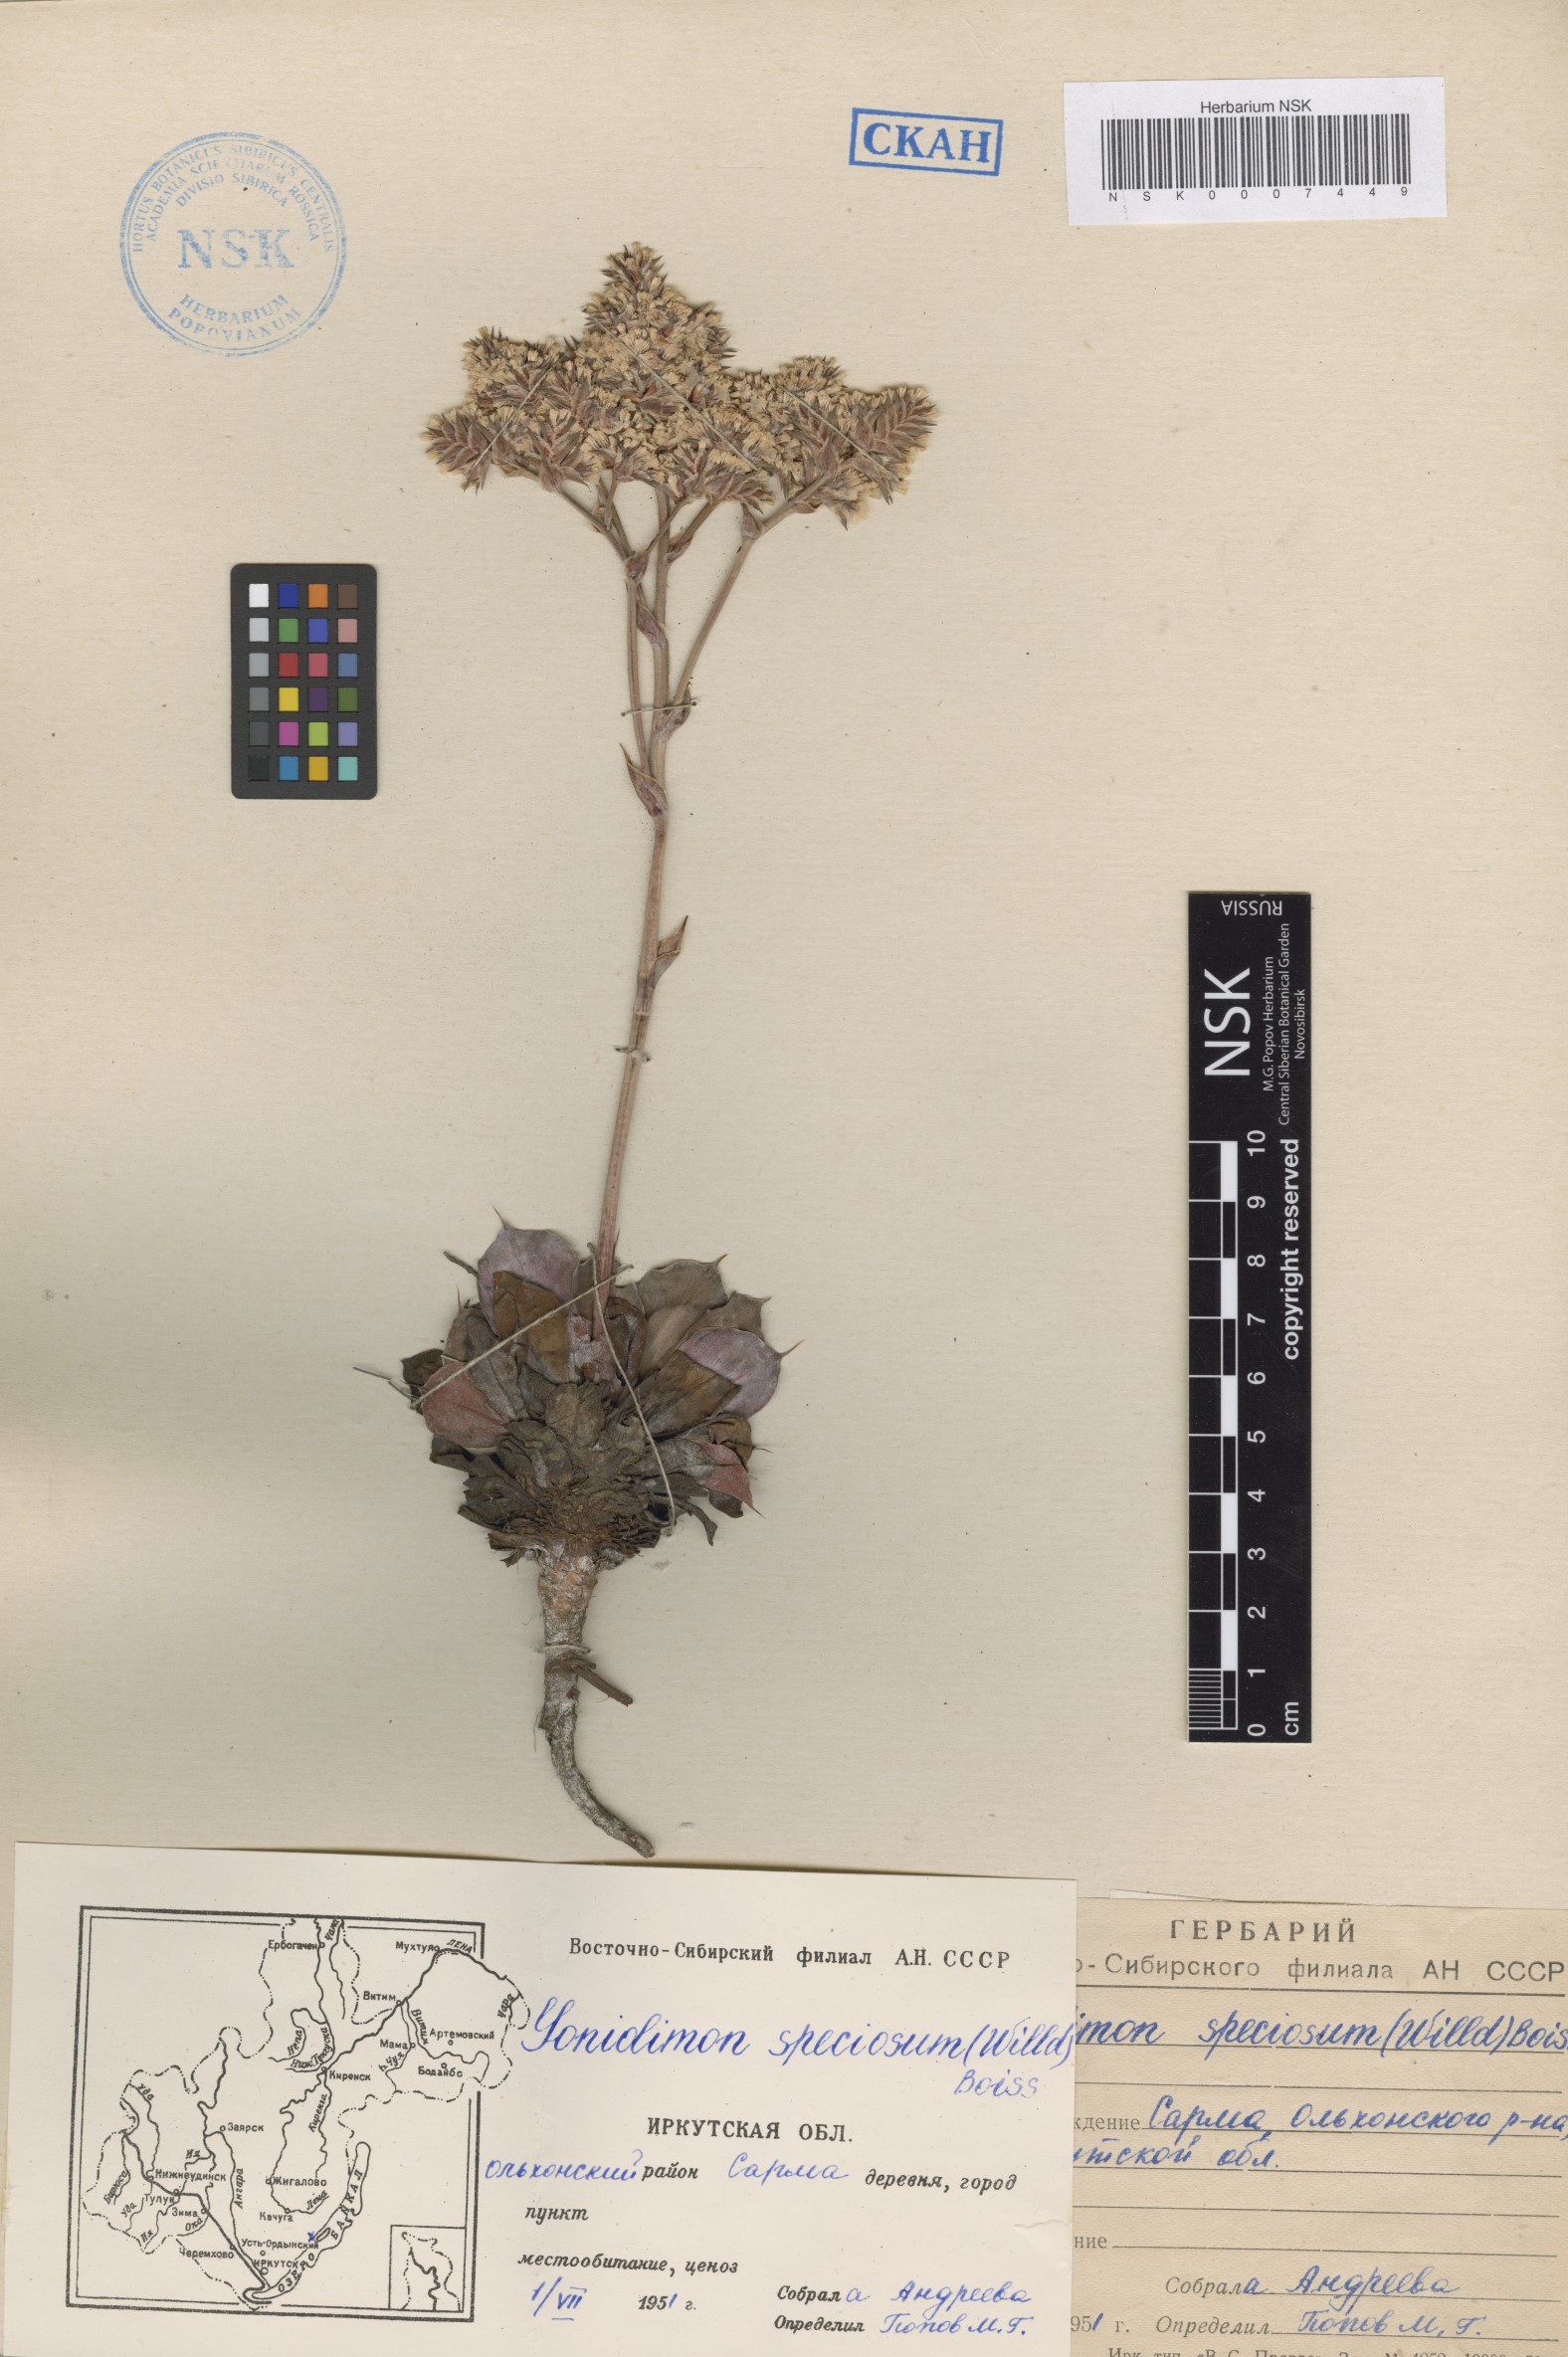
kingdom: Plantae
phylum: Tracheophyta
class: Magnoliopsida
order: Caryophyllales
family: Plumbaginaceae
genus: Goniolimon
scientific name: Goniolimon speciosum
